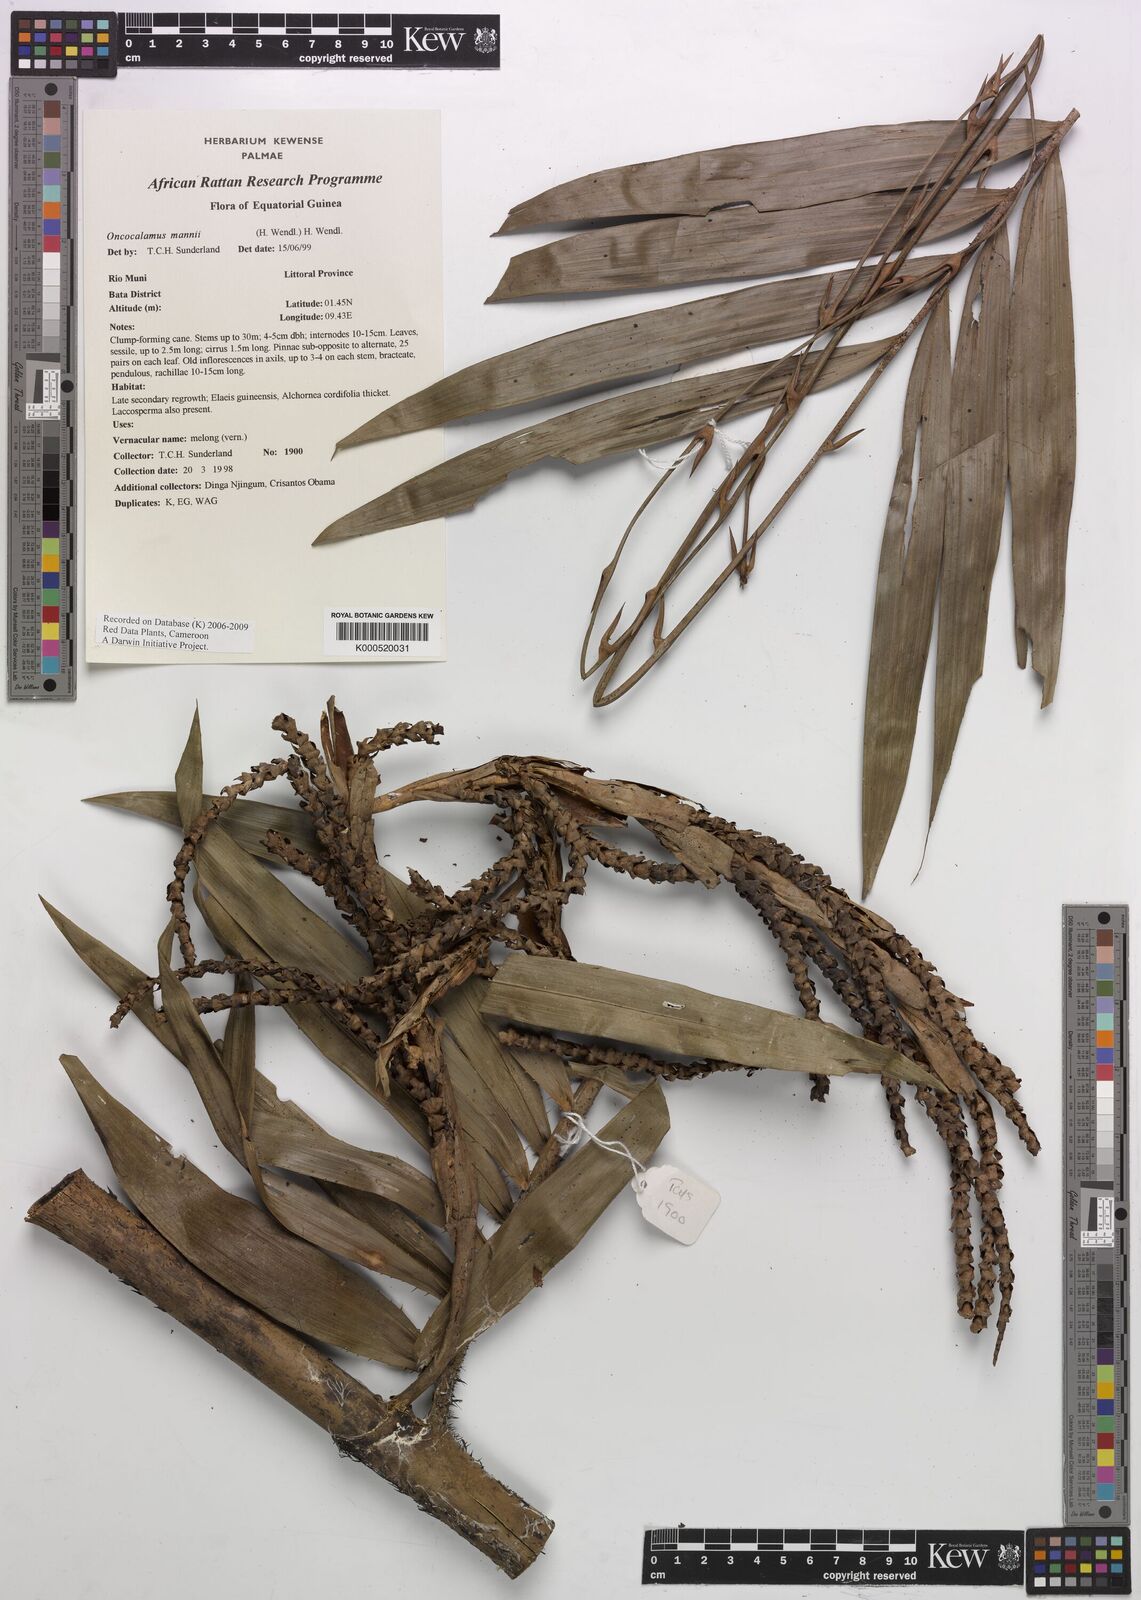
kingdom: Plantae
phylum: Tracheophyta
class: Liliopsida
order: Arecales
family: Arecaceae
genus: Oncocalamus
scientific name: Oncocalamus mannii
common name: Rattan
